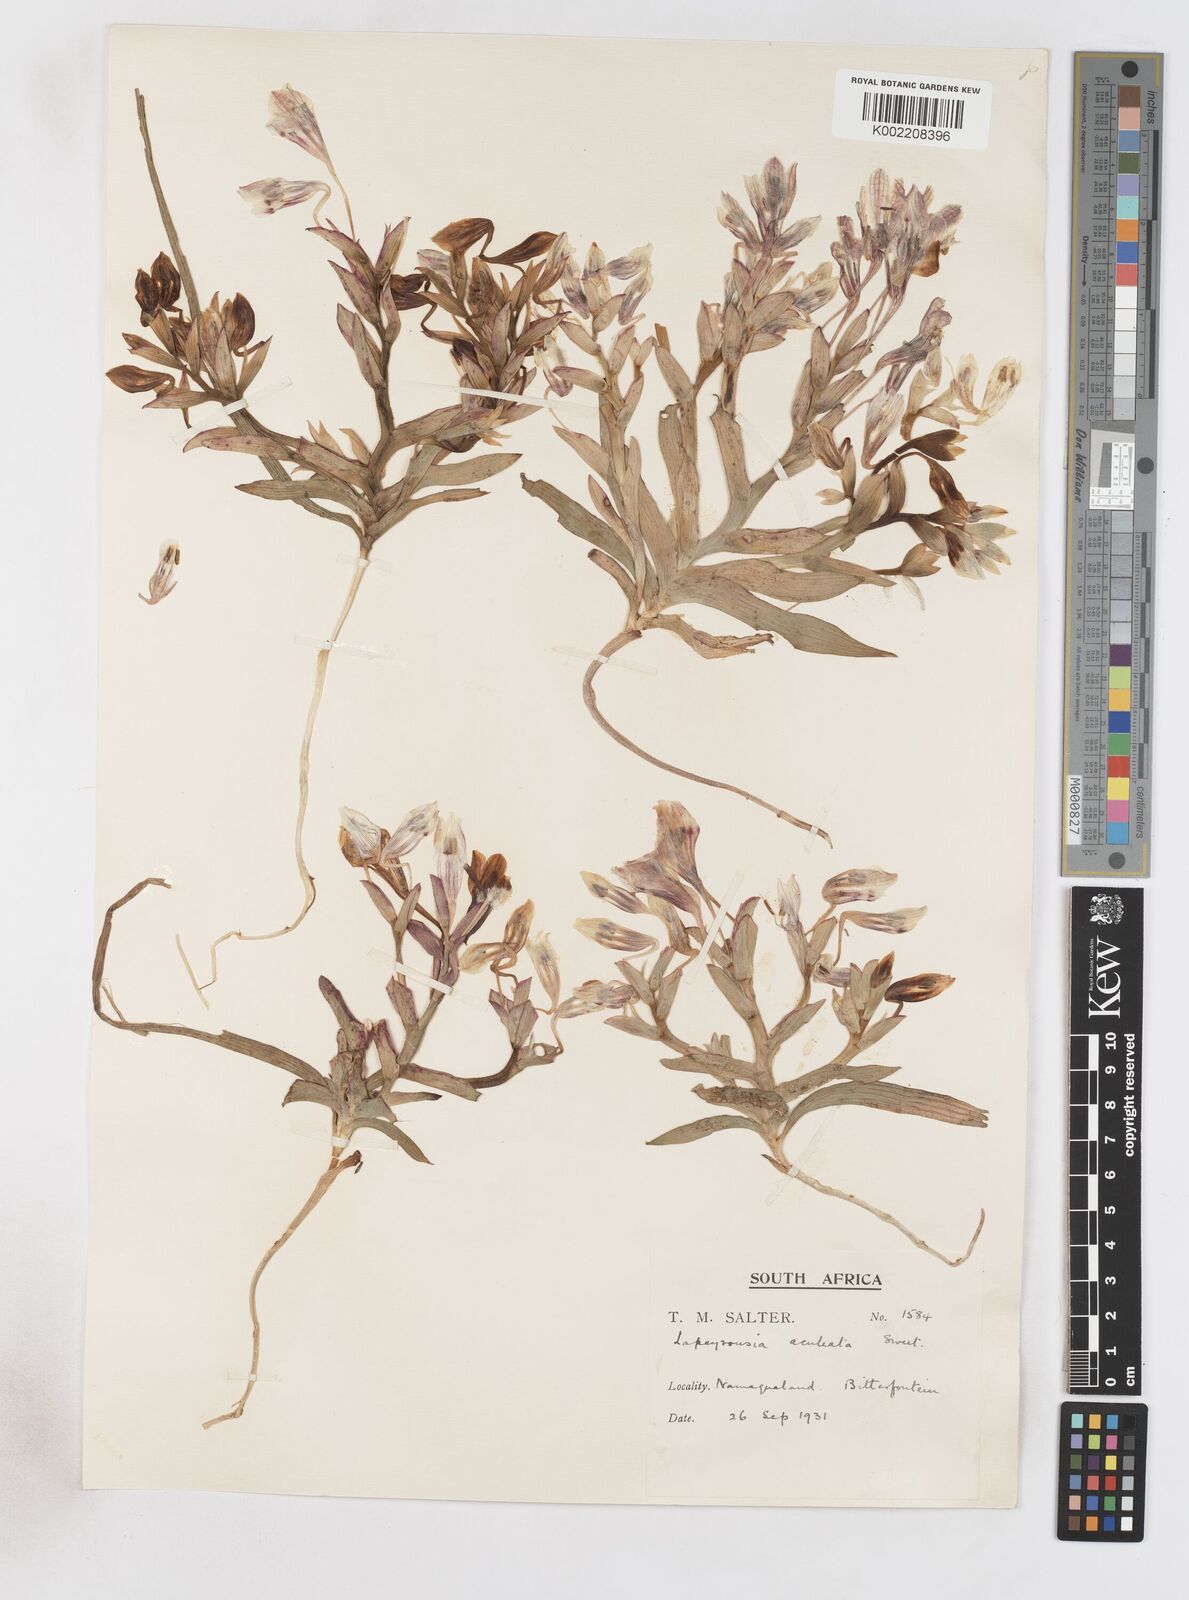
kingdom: Plantae
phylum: Tracheophyta
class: Liliopsida
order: Asparagales
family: Iridaceae
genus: Lapeirousia
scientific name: Lapeirousia fabricii
